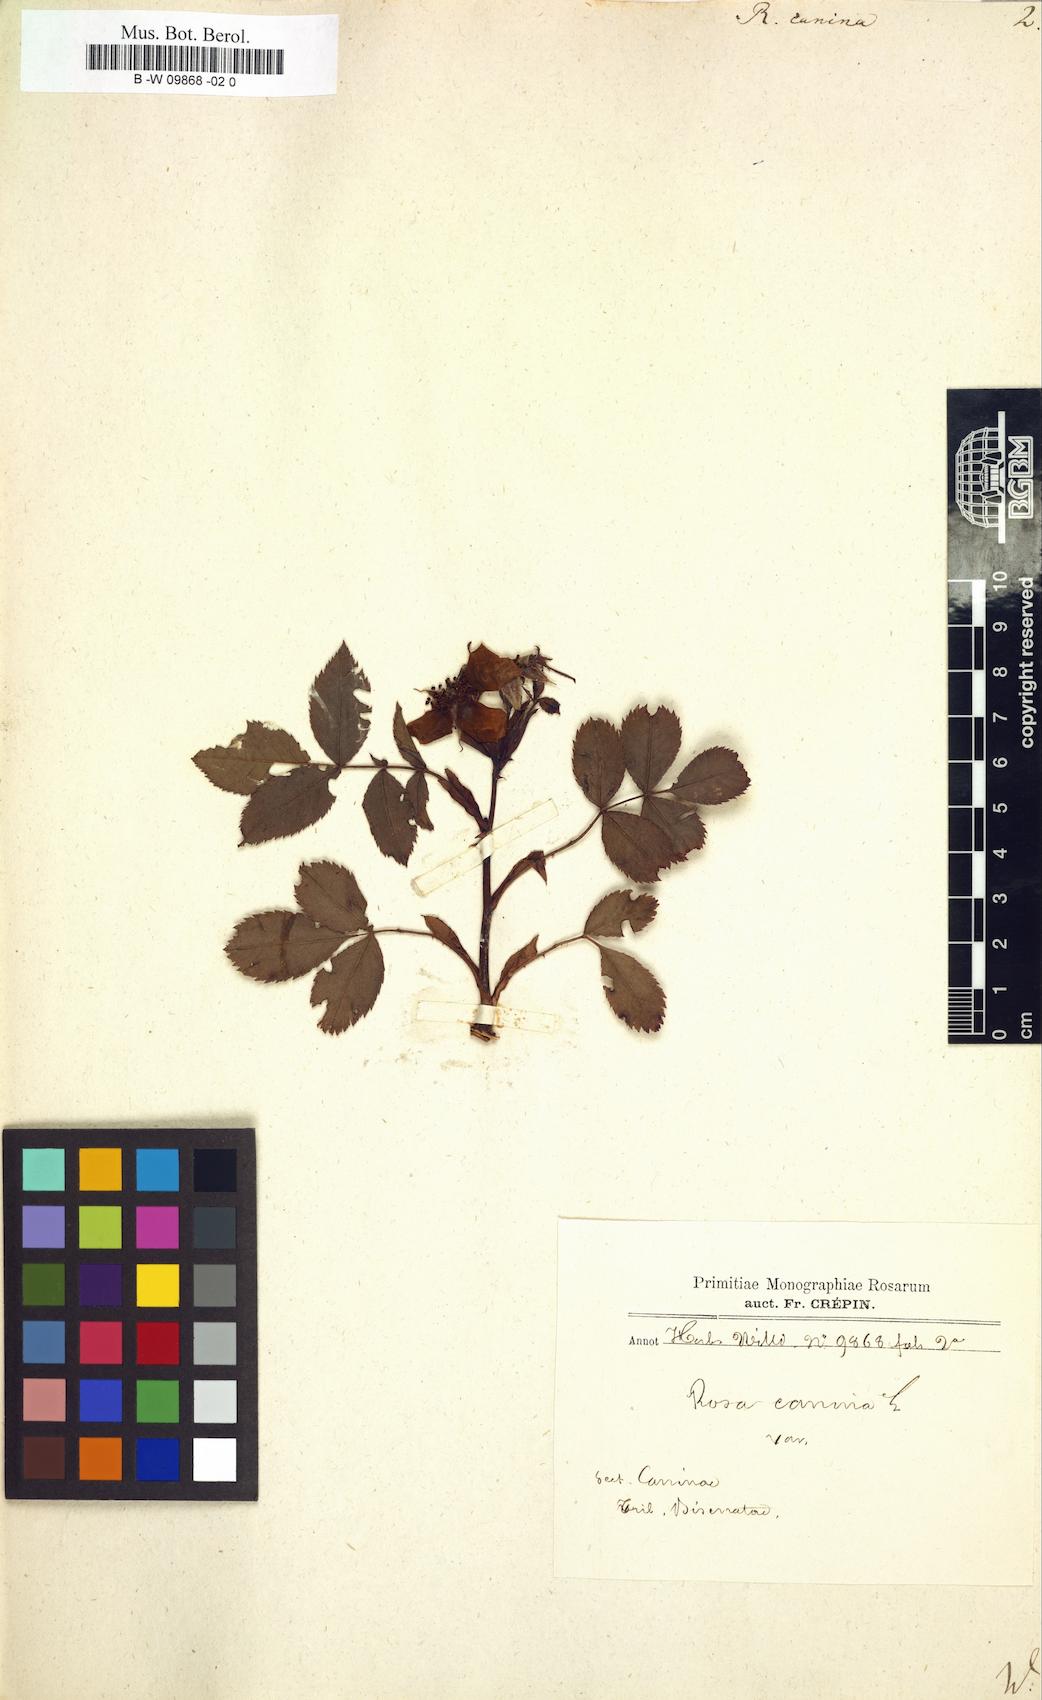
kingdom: Plantae
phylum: Tracheophyta
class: Magnoliopsida
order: Rosales
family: Rosaceae
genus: Rosa
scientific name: Rosa canina
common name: Dog rose
